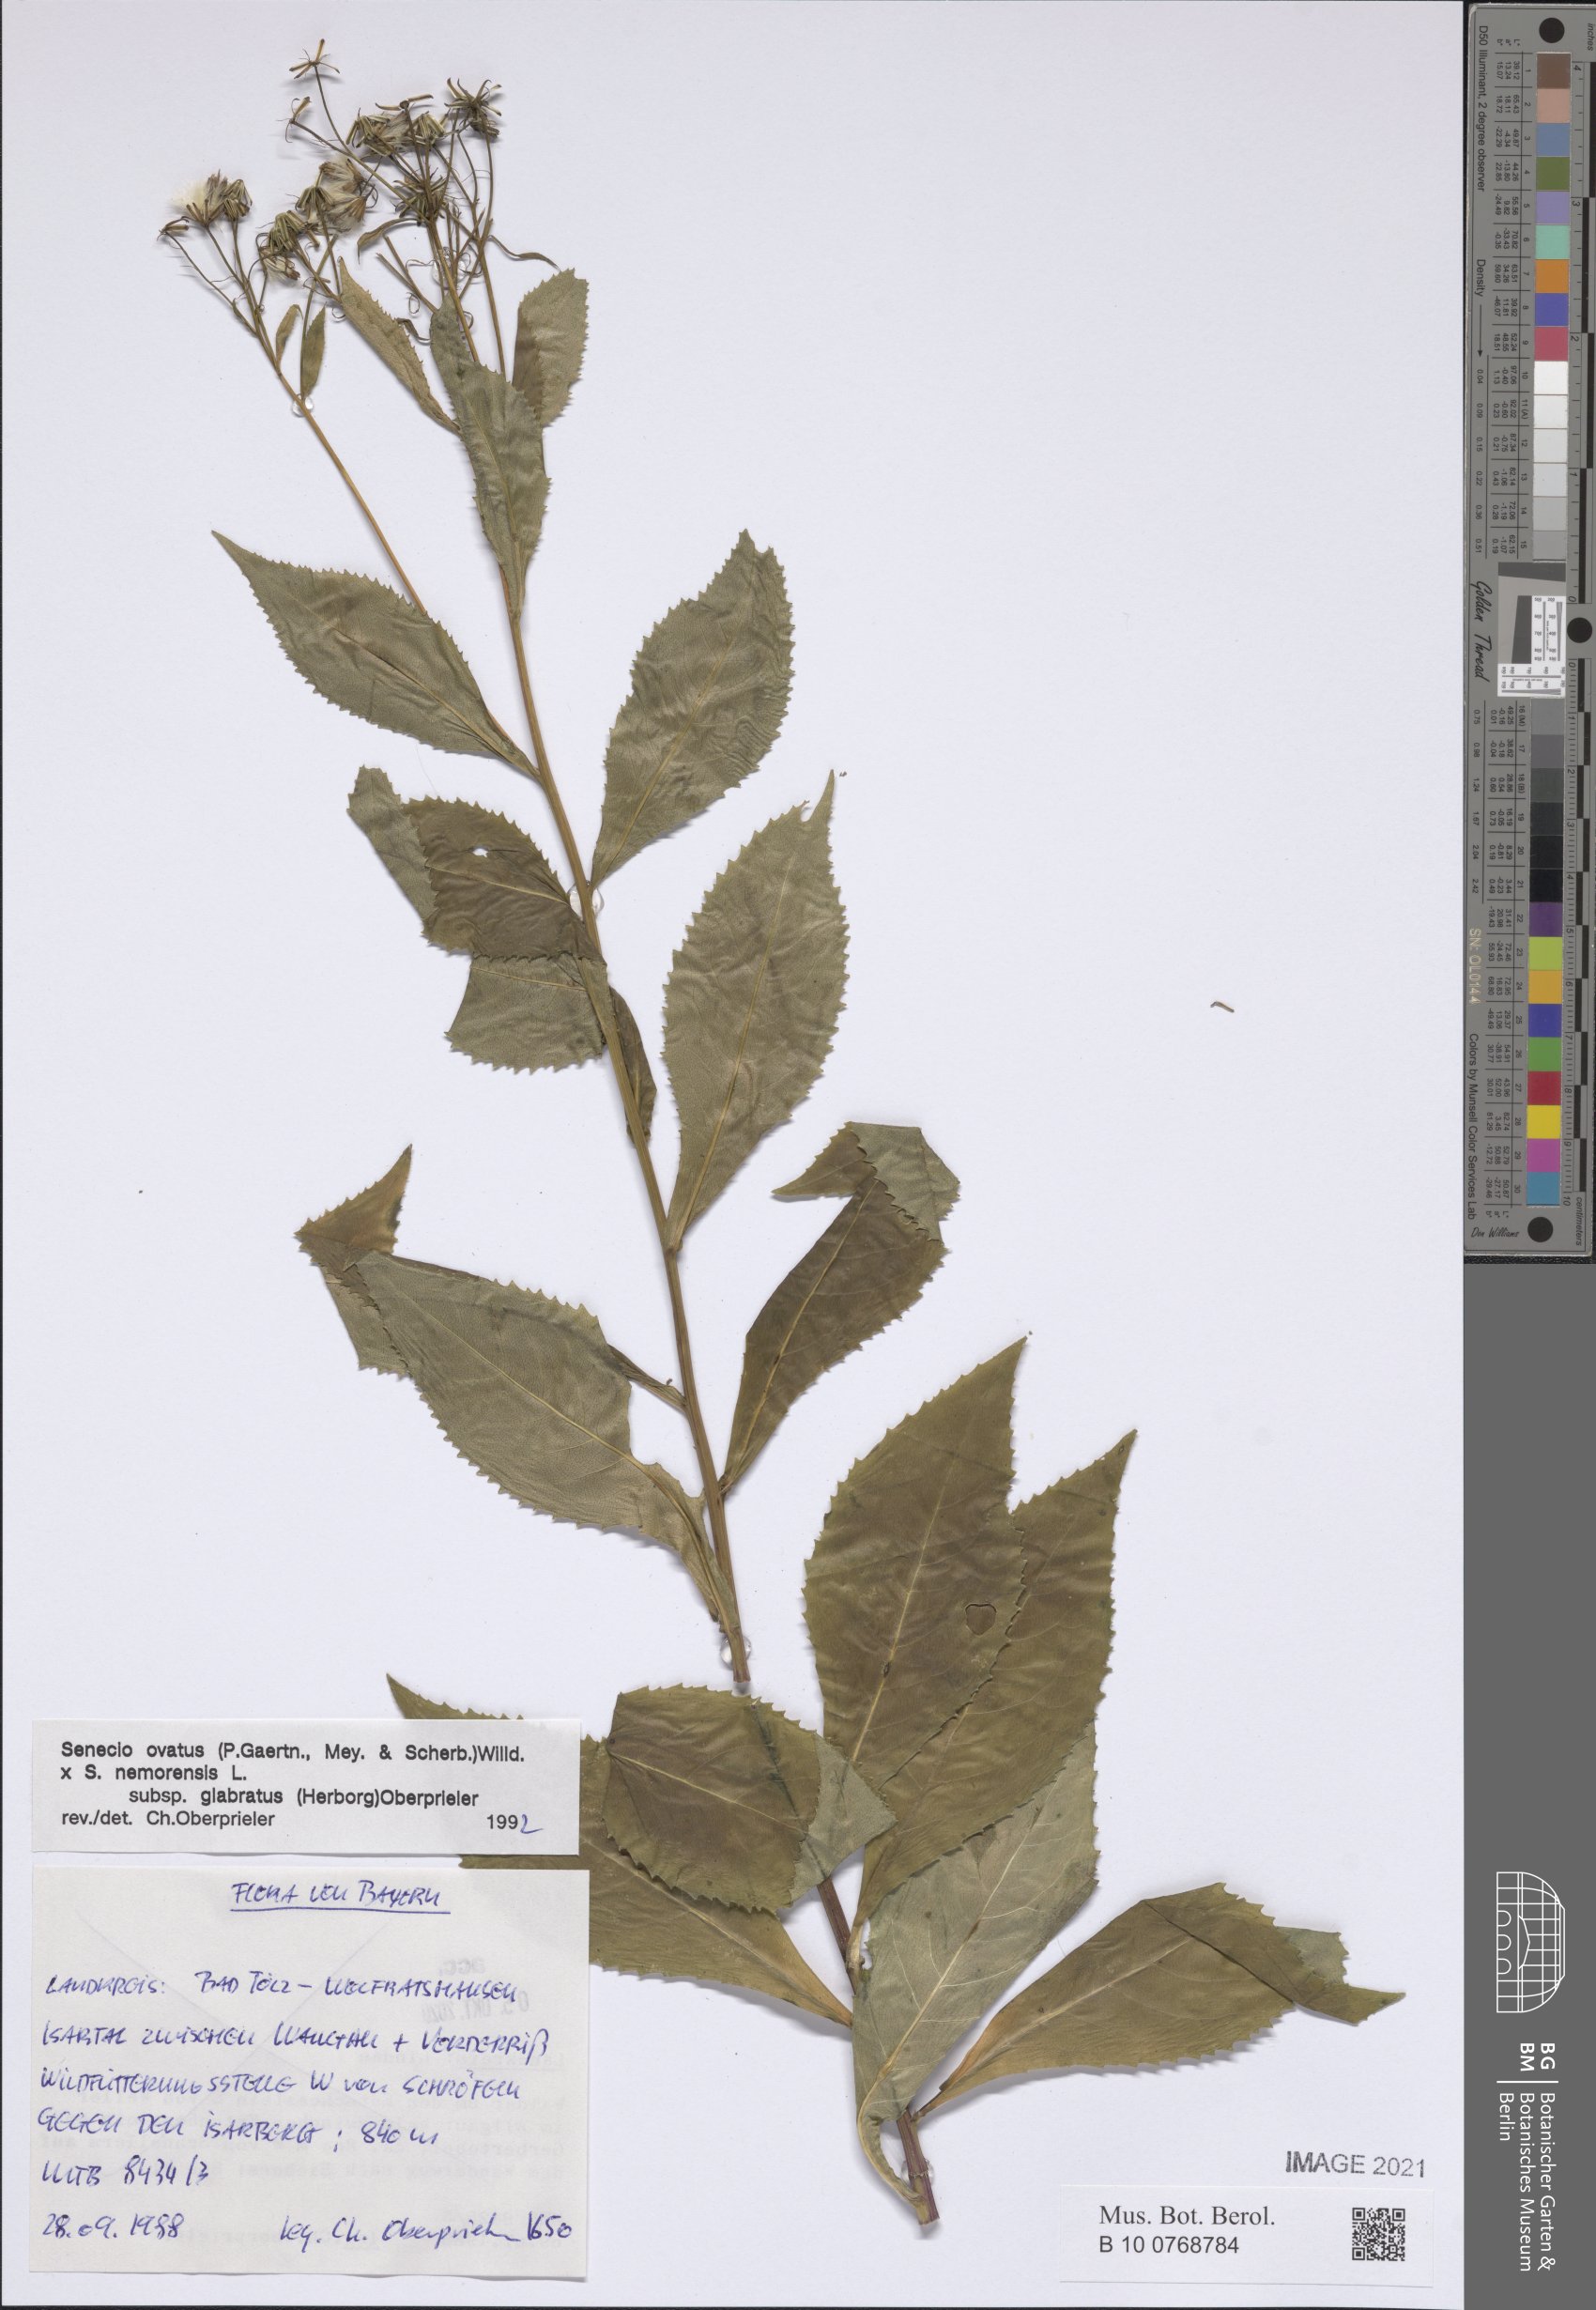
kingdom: Plantae
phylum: Tracheophyta
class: Magnoliopsida
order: Asterales
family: Asteraceae
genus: Senecio
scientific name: Senecio ovatus
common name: Wood ragwort
